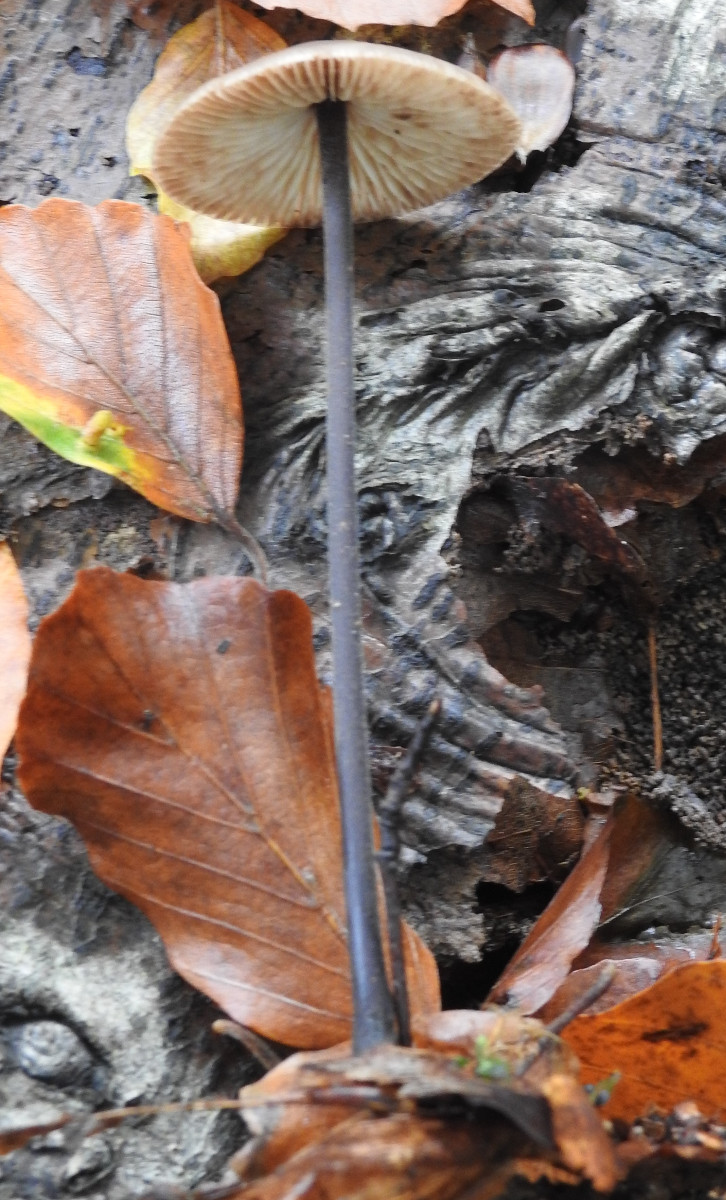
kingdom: Fungi
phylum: Basidiomycota
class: Agaricomycetes
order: Agaricales
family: Omphalotaceae
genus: Mycetinis
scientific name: Mycetinis alliaceus
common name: stor løghat
